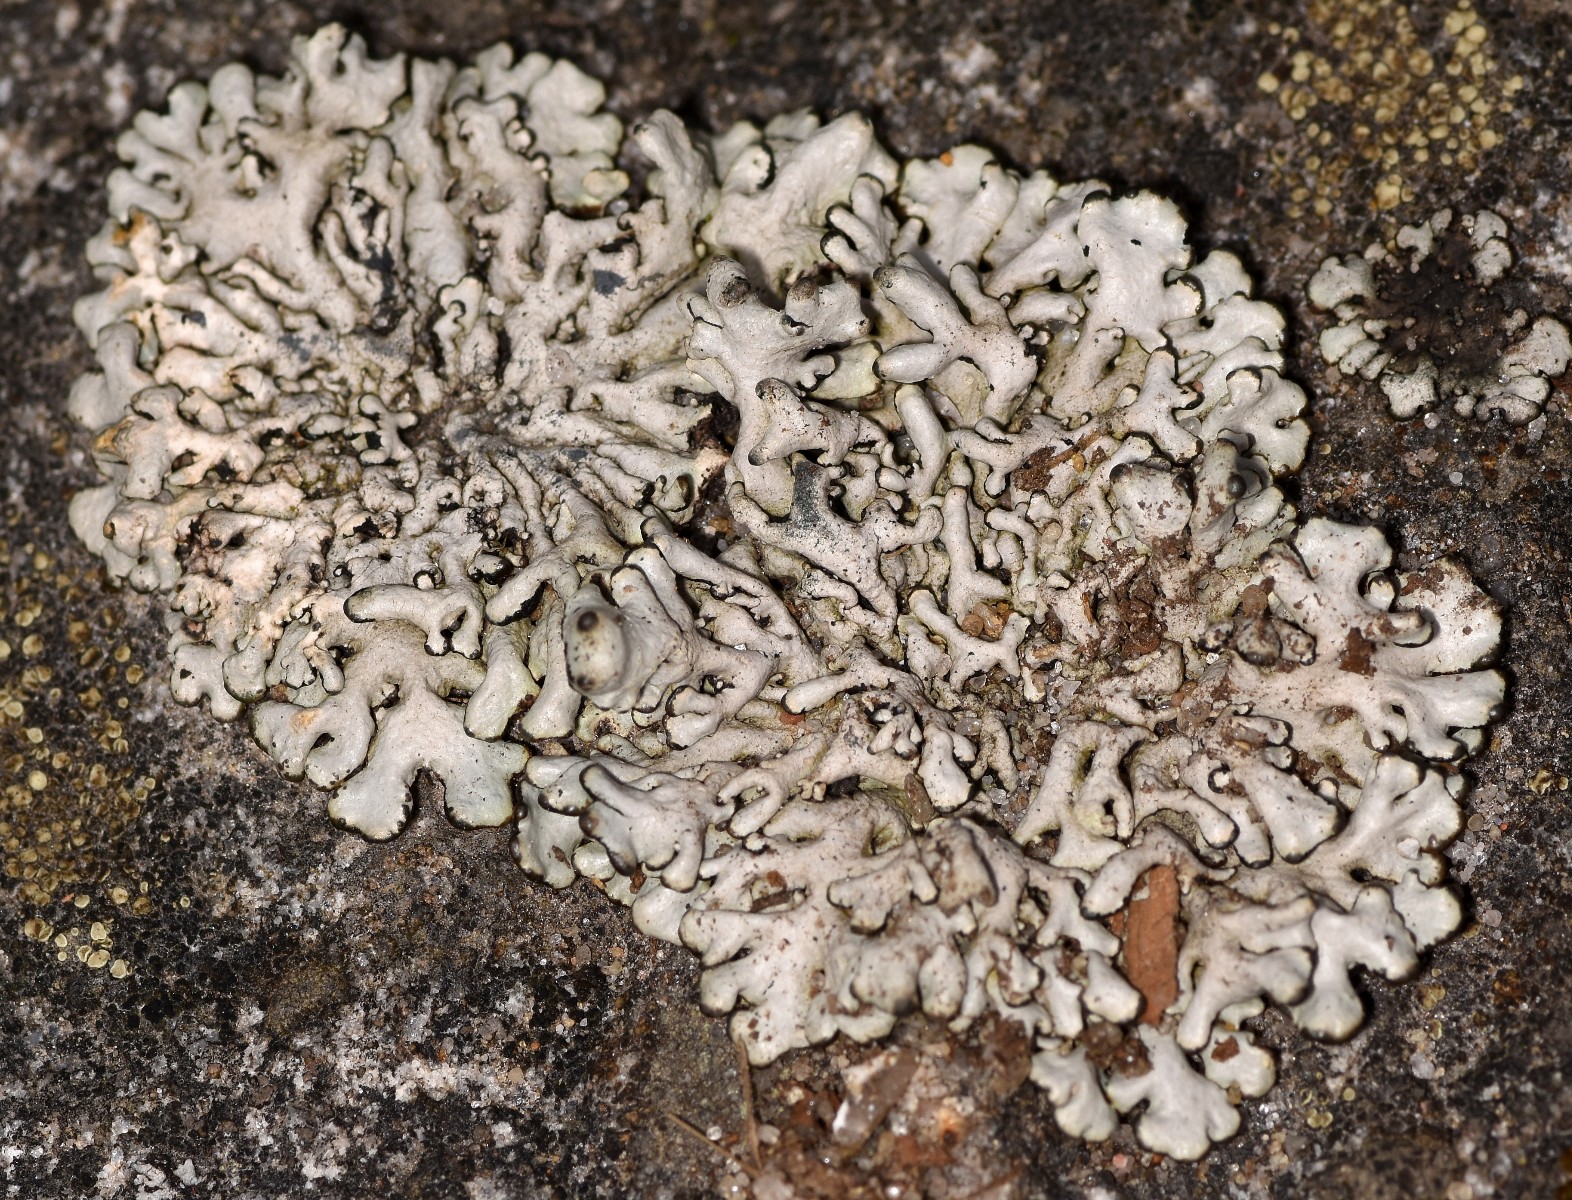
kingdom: Fungi
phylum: Ascomycota
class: Lecanoromycetes
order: Lecanorales
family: Parmeliaceae
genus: Hypogymnia
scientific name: Hypogymnia tubulosa
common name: finger-kvistlav
